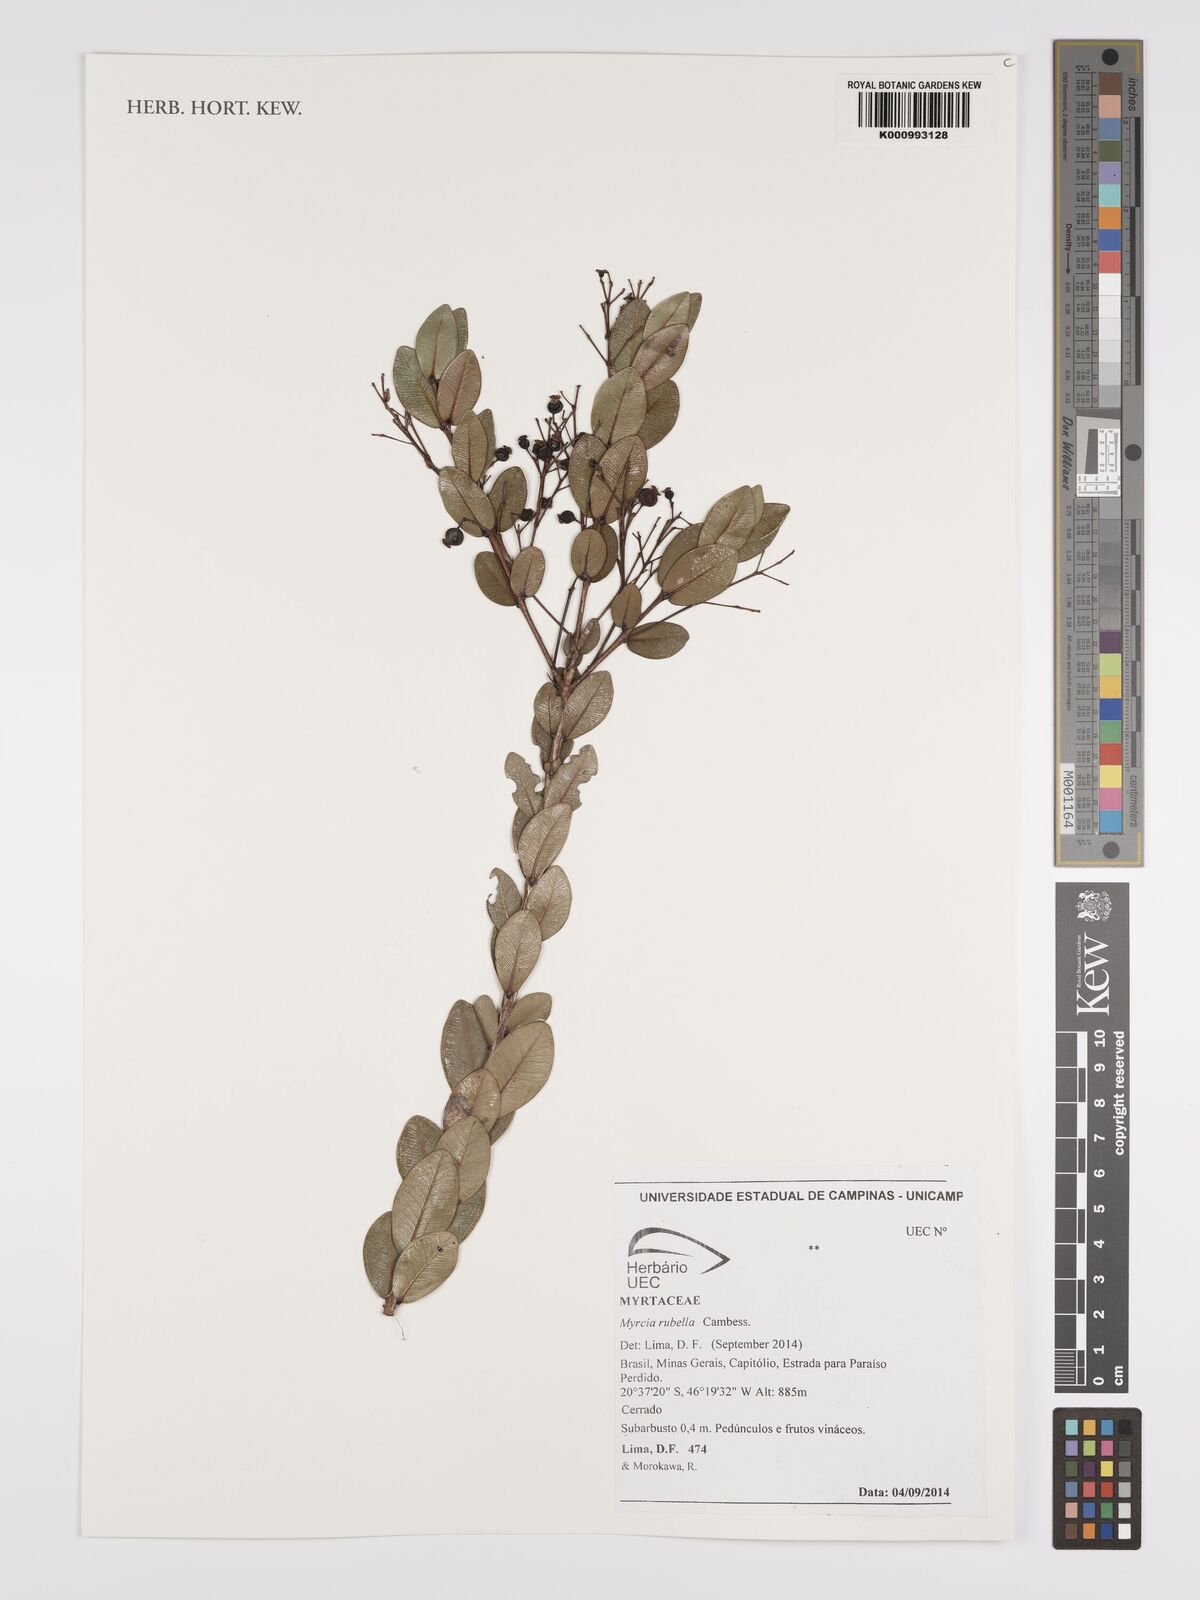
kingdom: Plantae
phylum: Tracheophyta
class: Magnoliopsida
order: Myrtales
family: Myrtaceae
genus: Myrcia
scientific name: Myrcia guianensis
